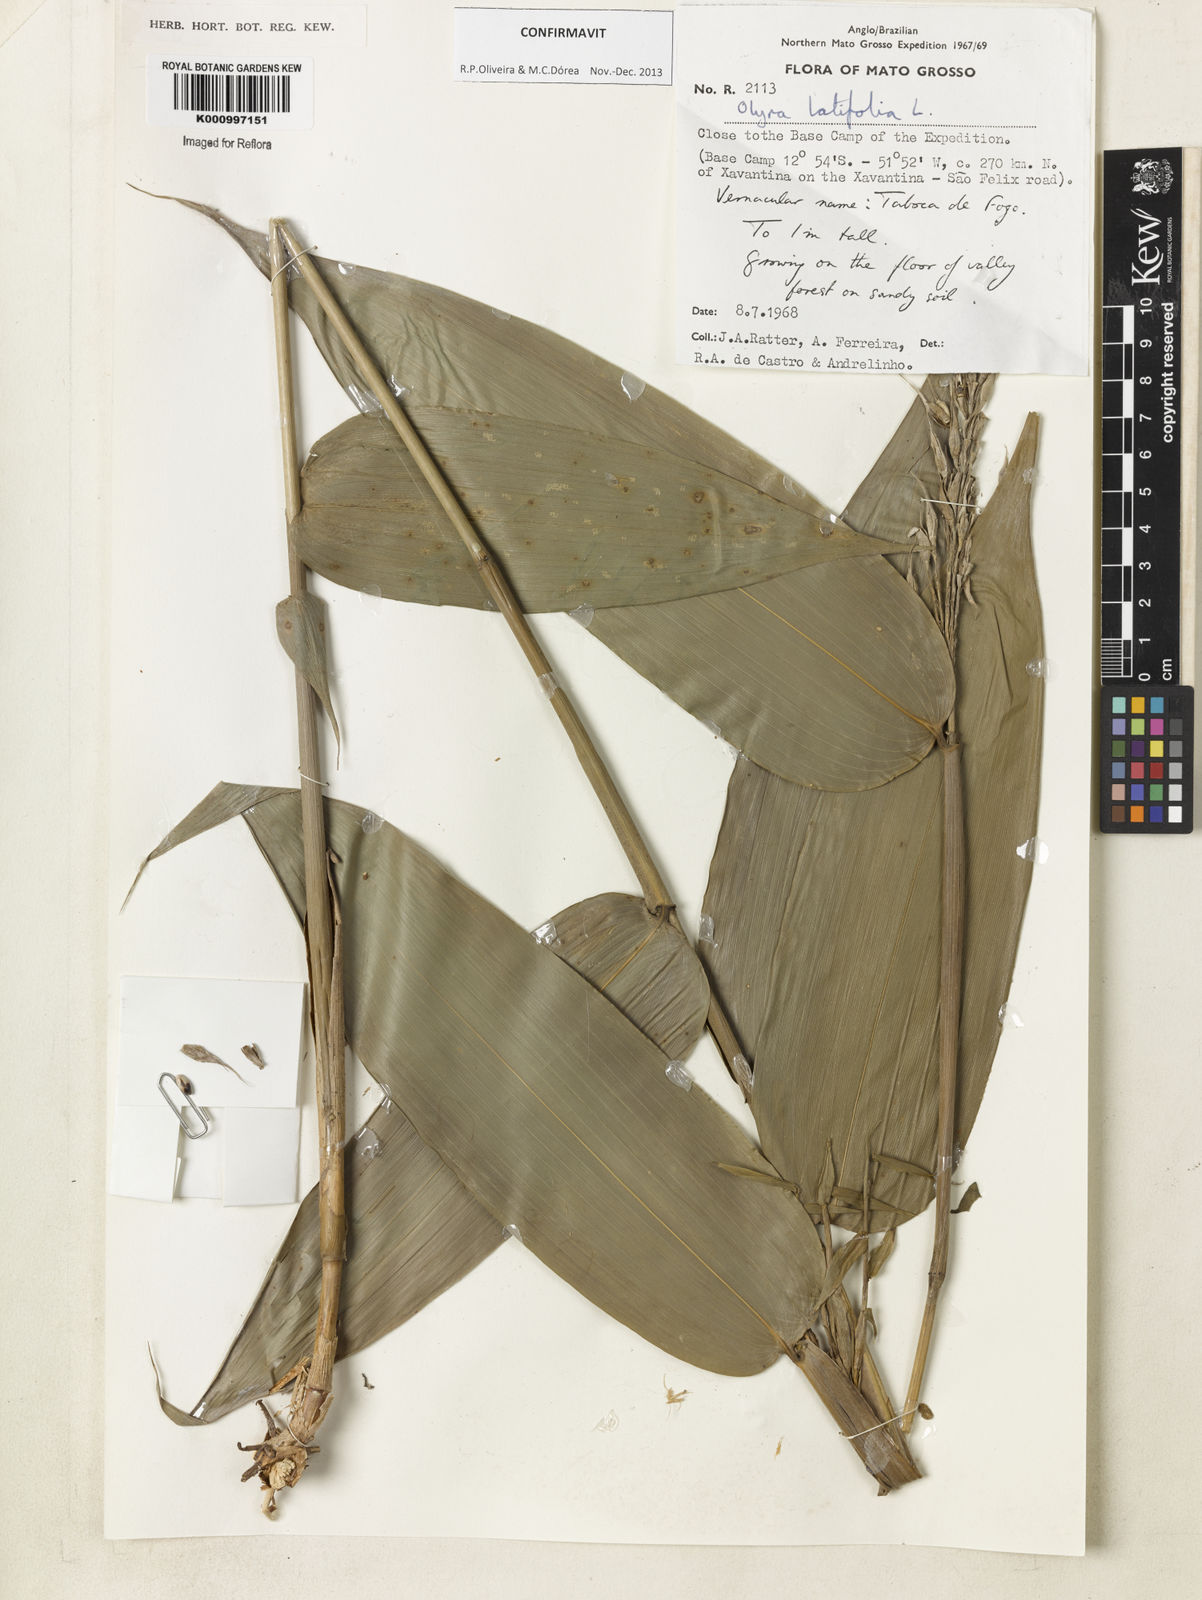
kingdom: Plantae
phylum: Tracheophyta
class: Liliopsida
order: Poales
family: Poaceae
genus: Olyra
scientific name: Olyra latifolia
